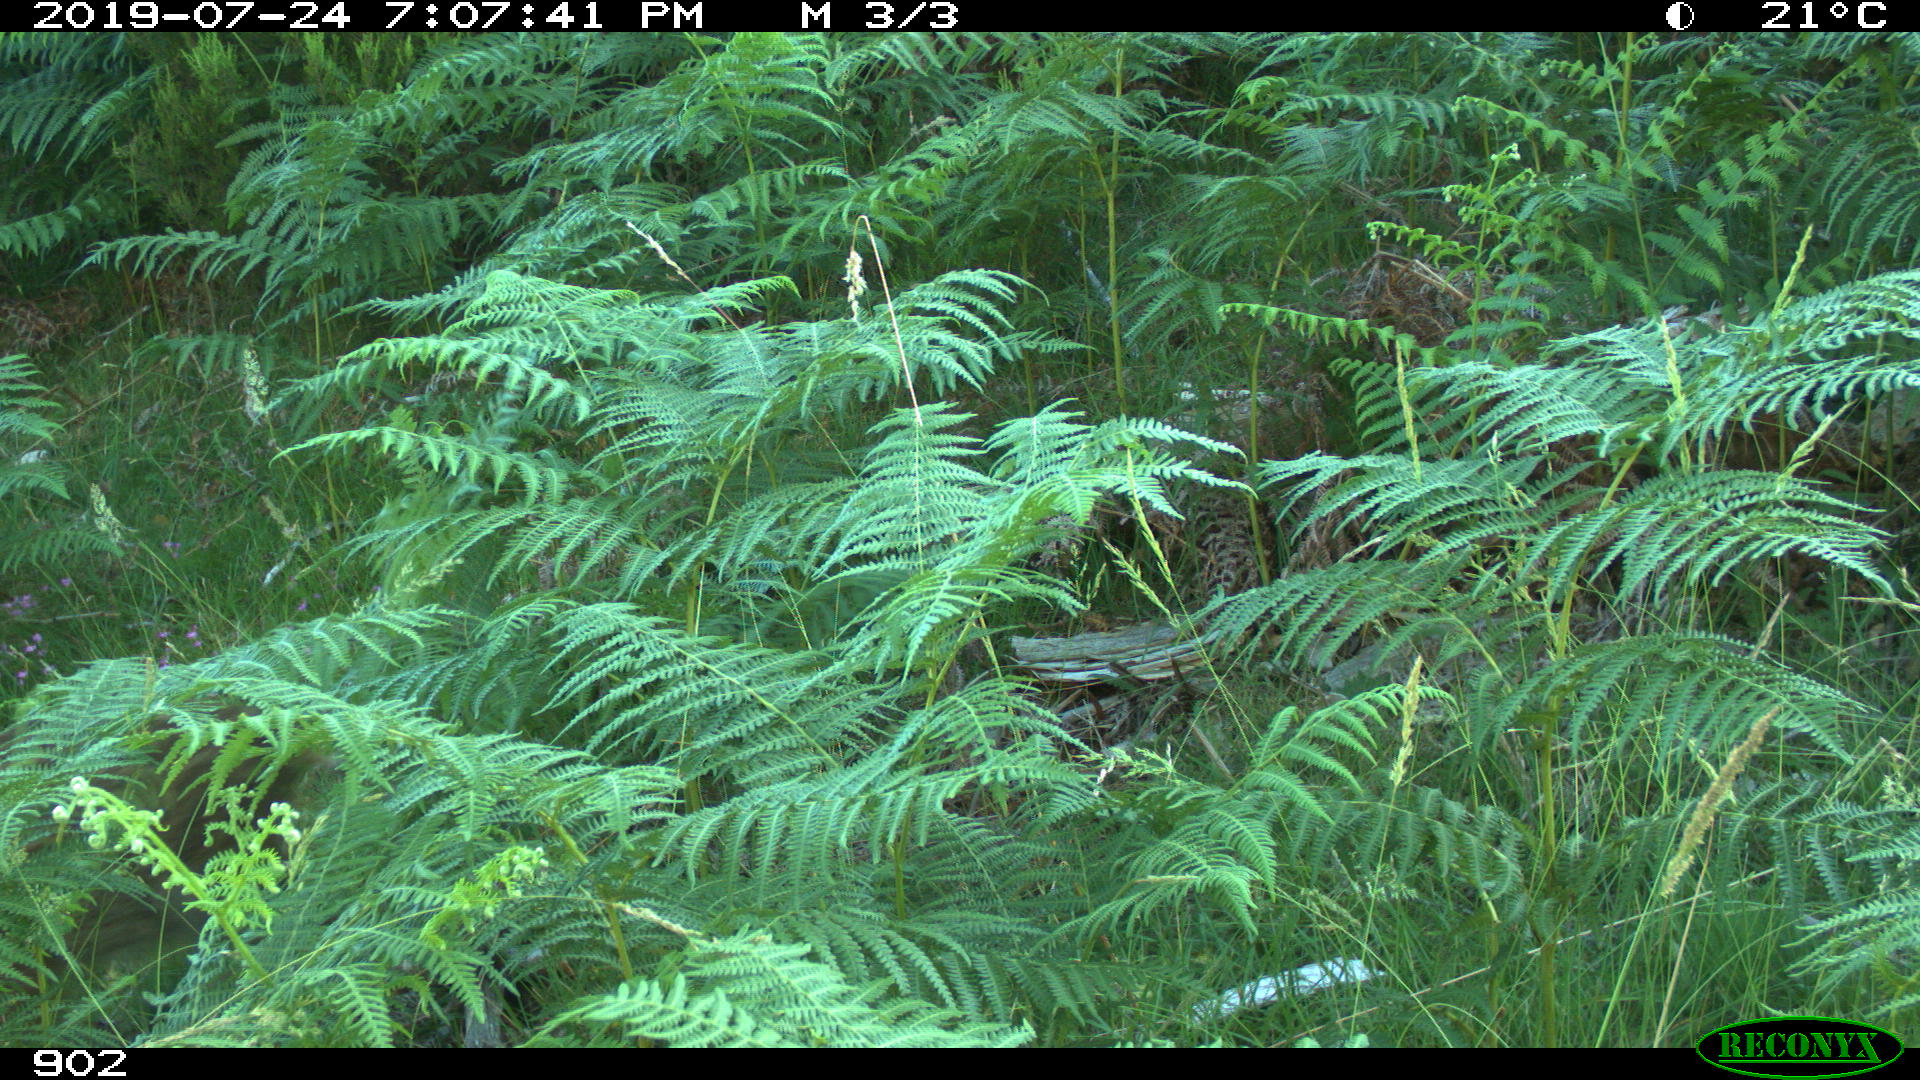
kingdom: Animalia
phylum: Chordata
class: Mammalia
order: Artiodactyla
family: Suidae
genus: Sus
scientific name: Sus scrofa
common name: Wild boar
